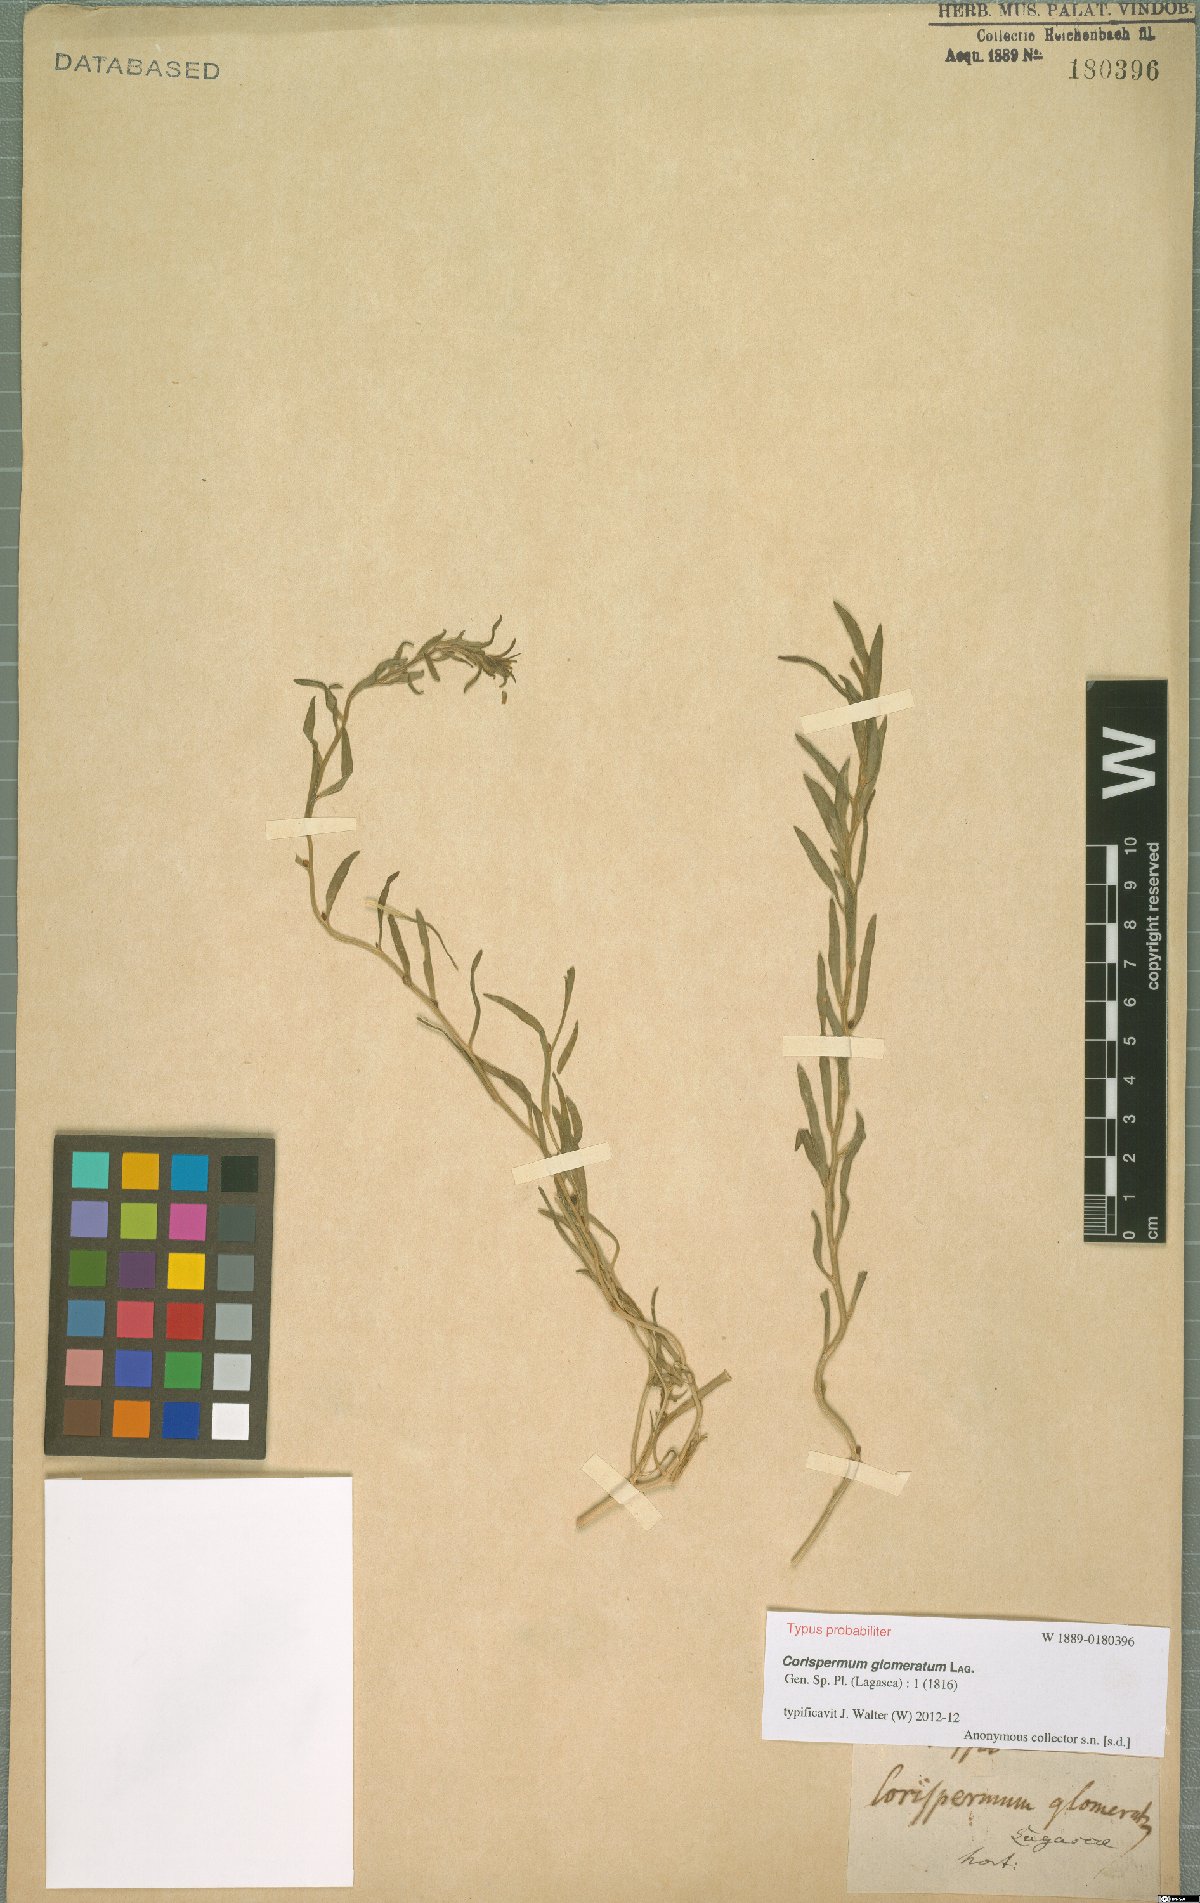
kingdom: Plantae
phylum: Tracheophyta
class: Magnoliopsida
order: Caryophyllales
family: Amaranthaceae
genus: Corispermum
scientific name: Corispermum glomeratum
